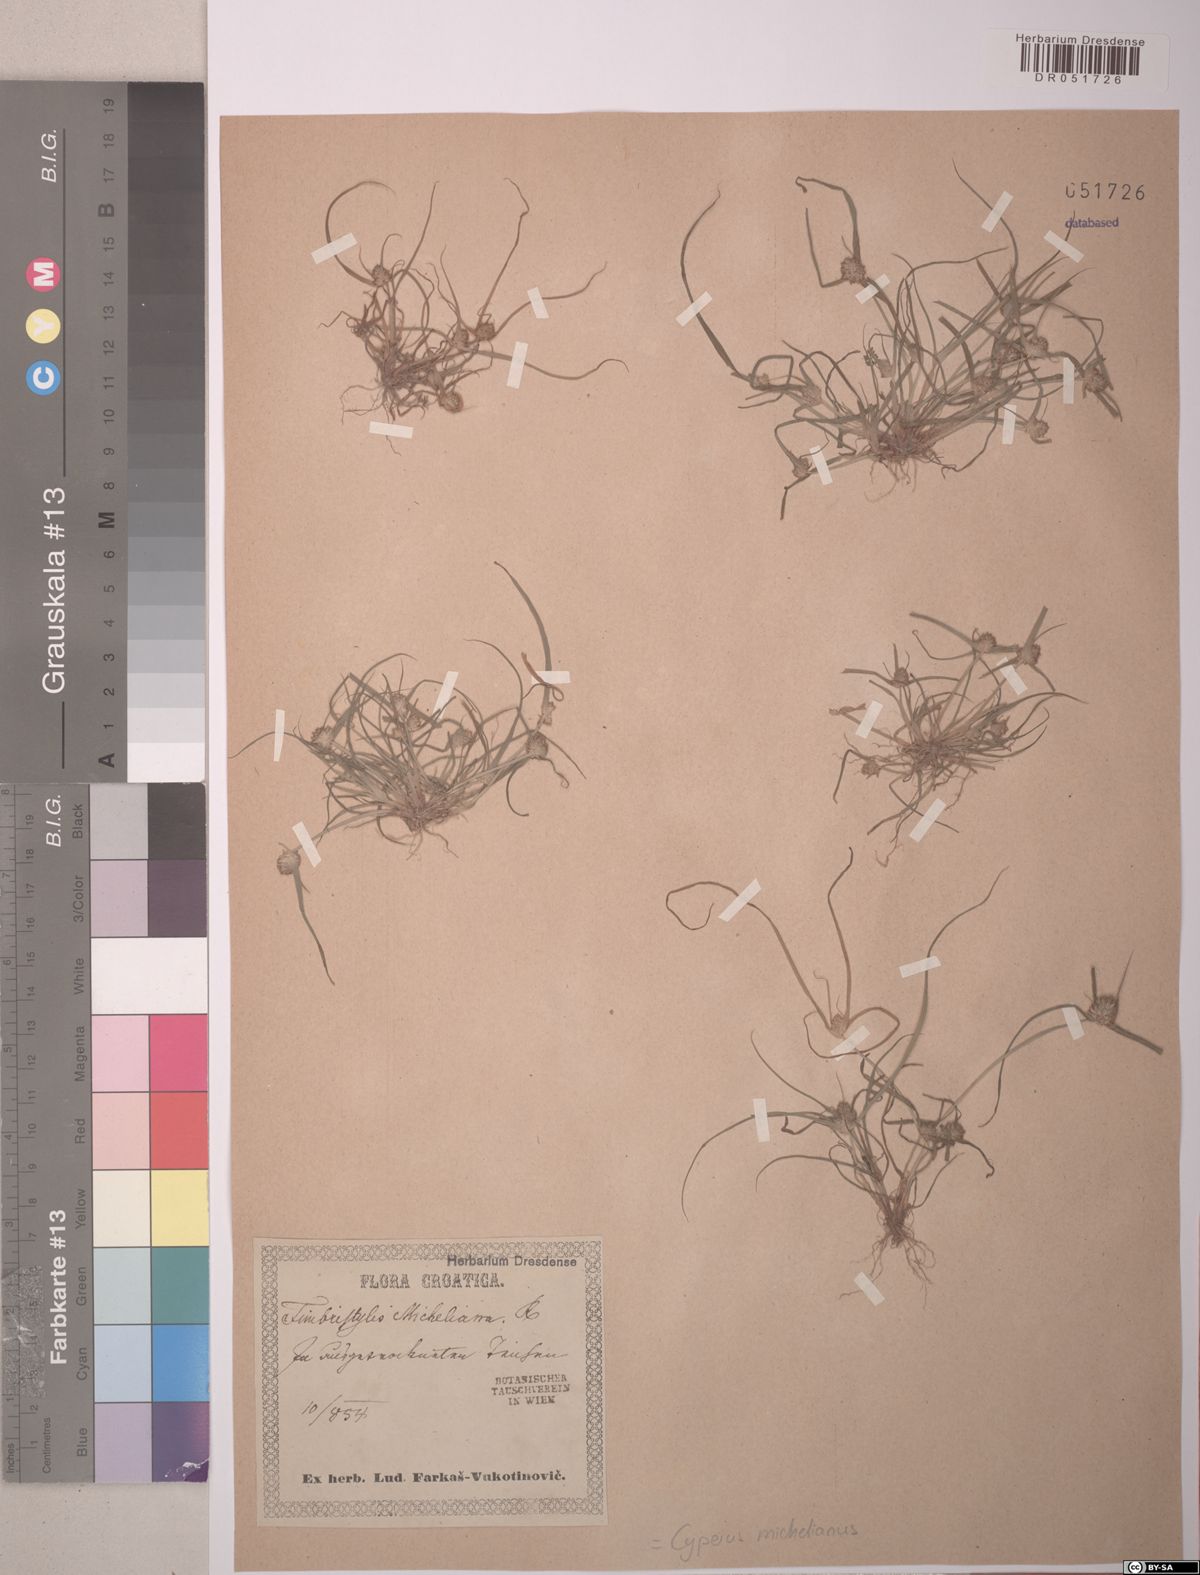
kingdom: Plantae
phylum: Tracheophyta
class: Liliopsida
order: Poales
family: Cyperaceae
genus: Cyperus
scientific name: Cyperus michelianus
